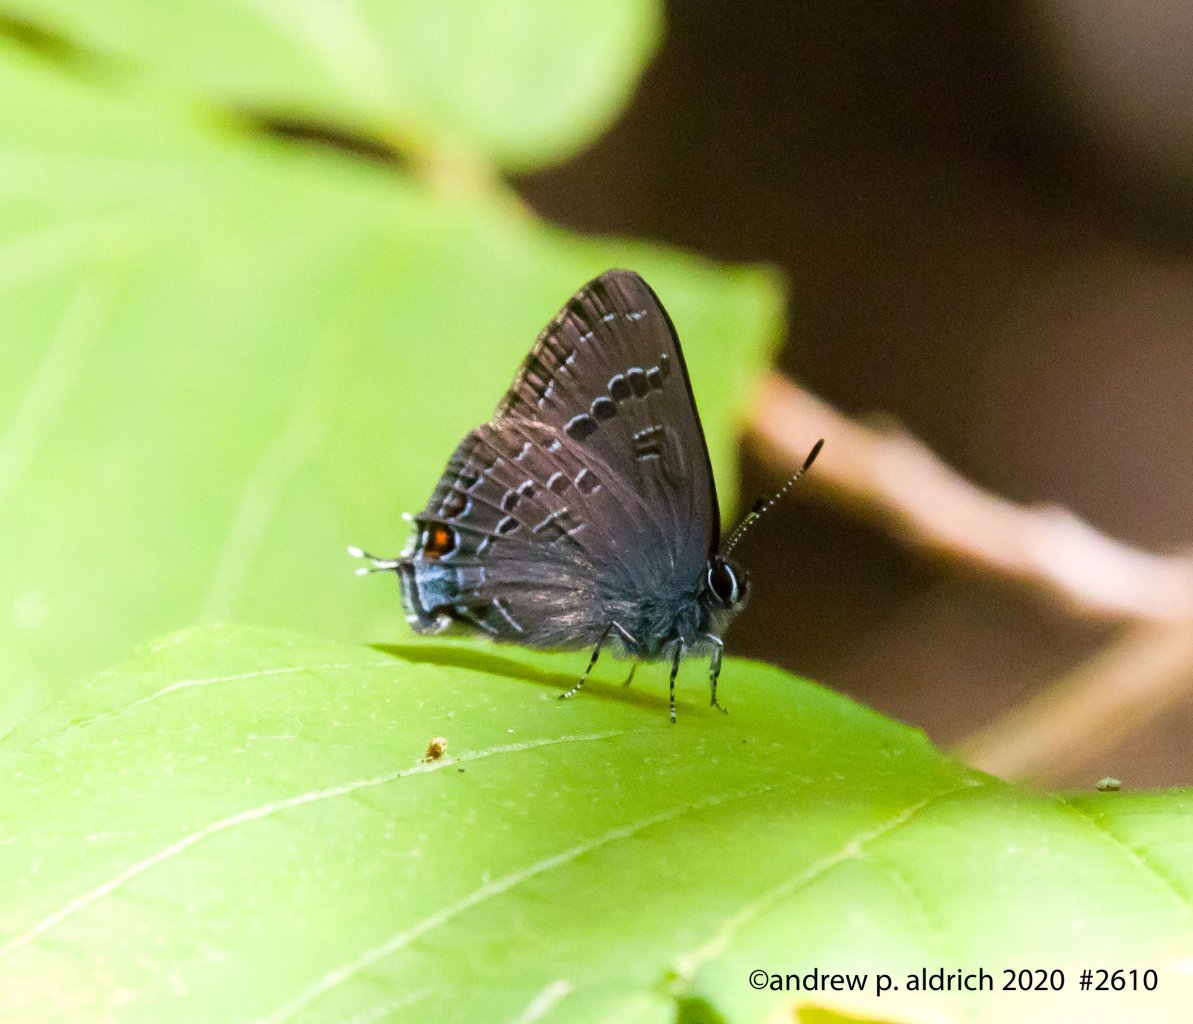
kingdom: Animalia
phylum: Arthropoda
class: Insecta
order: Lepidoptera
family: Lycaenidae
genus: Satyrium
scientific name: Satyrium calanus
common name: Banded Hairstreak
